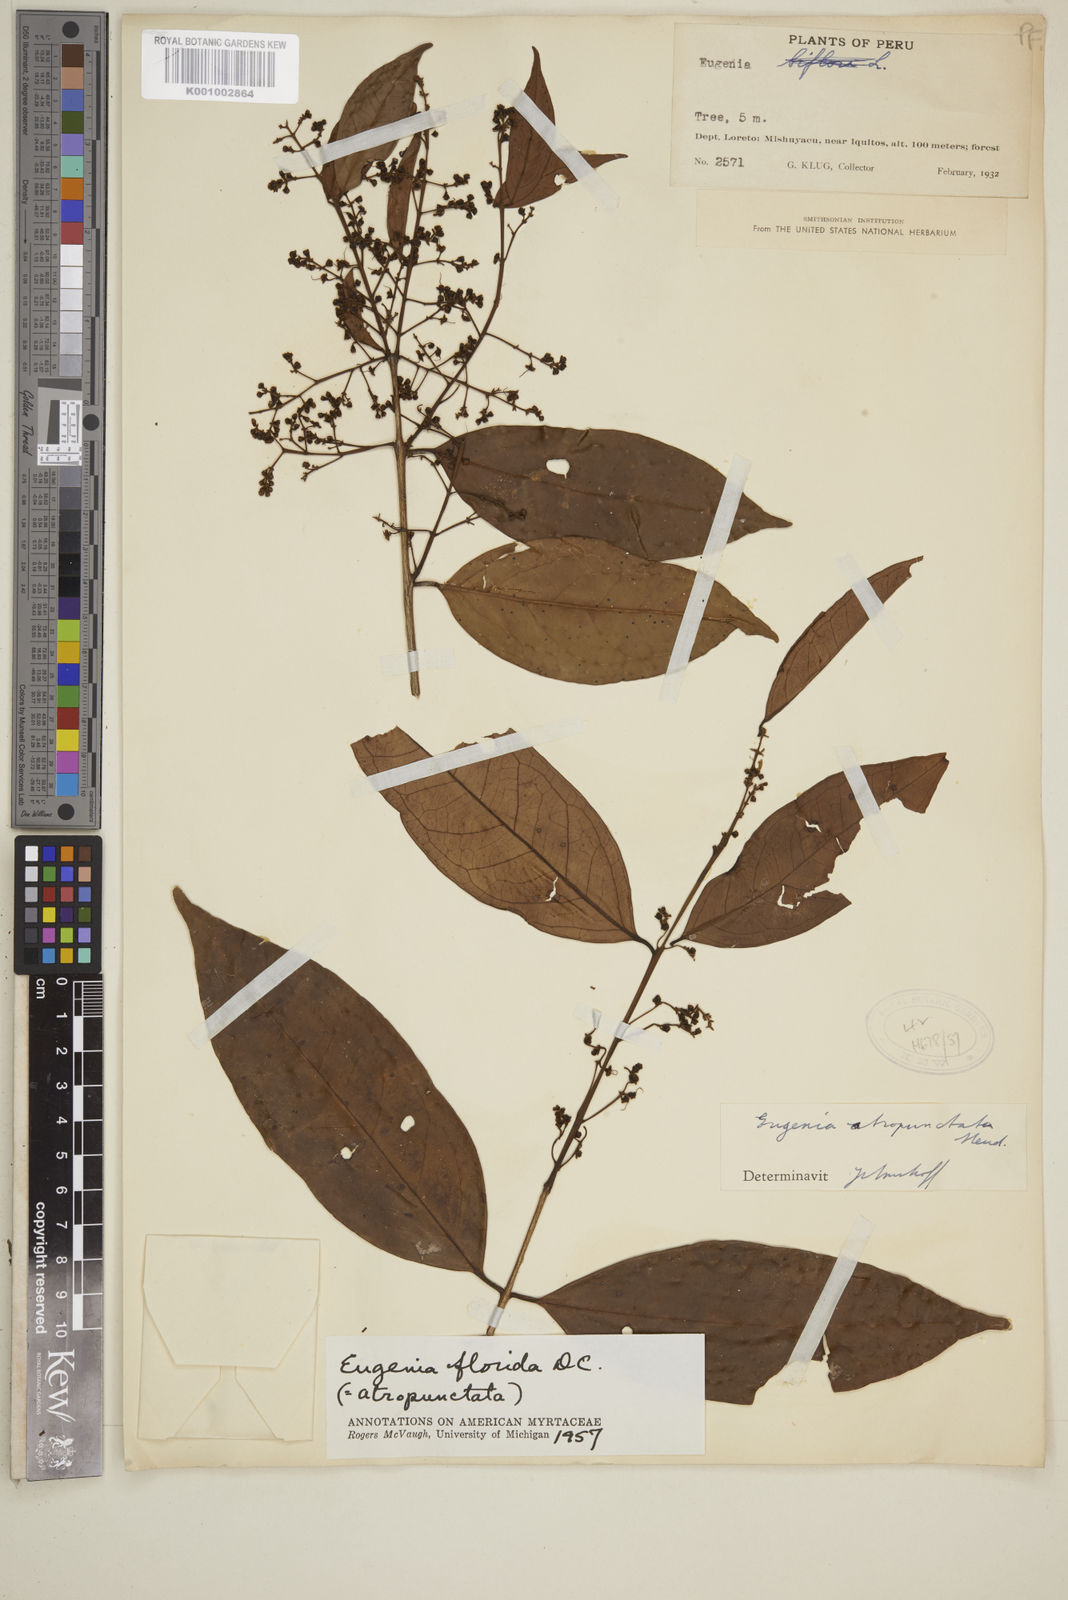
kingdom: Plantae
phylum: Tracheophyta
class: Magnoliopsida
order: Myrtales
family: Myrtaceae
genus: Eugenia
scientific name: Eugenia florida
